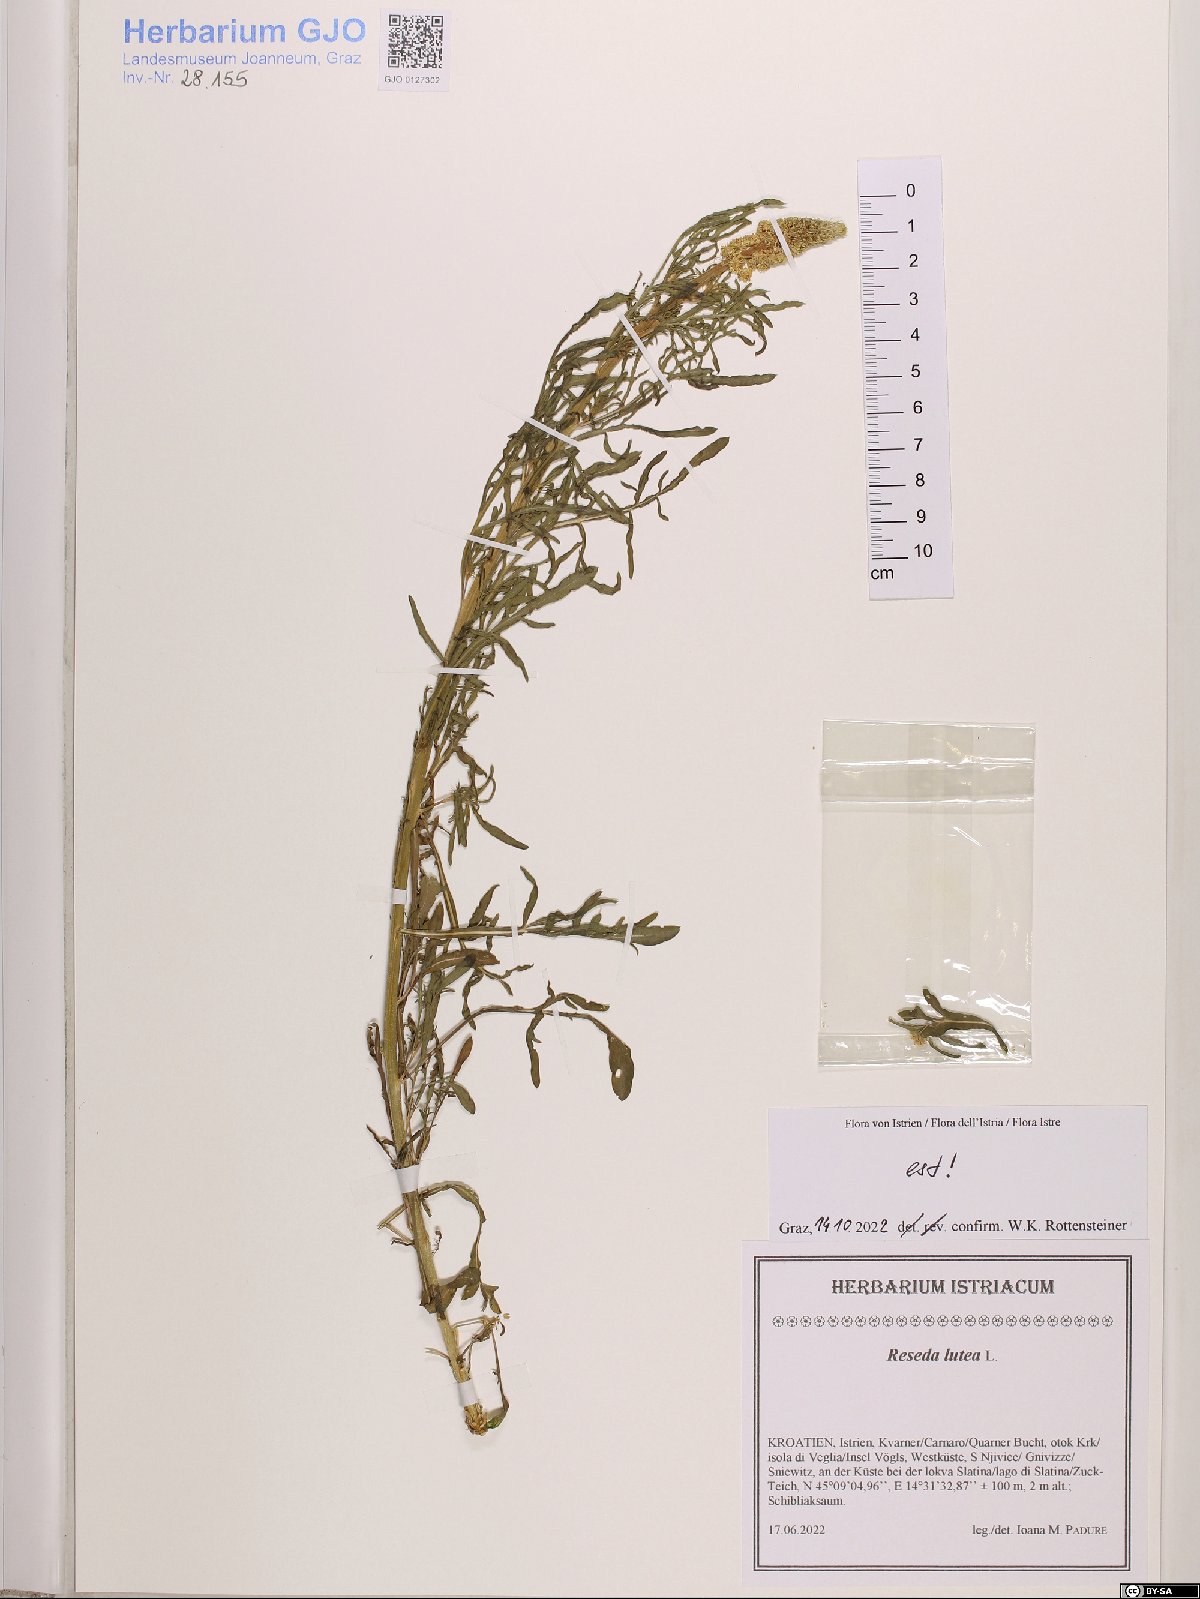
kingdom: Plantae
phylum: Tracheophyta
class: Magnoliopsida
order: Brassicales
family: Resedaceae
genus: Reseda
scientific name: Reseda lutea
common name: Wild mignonette
